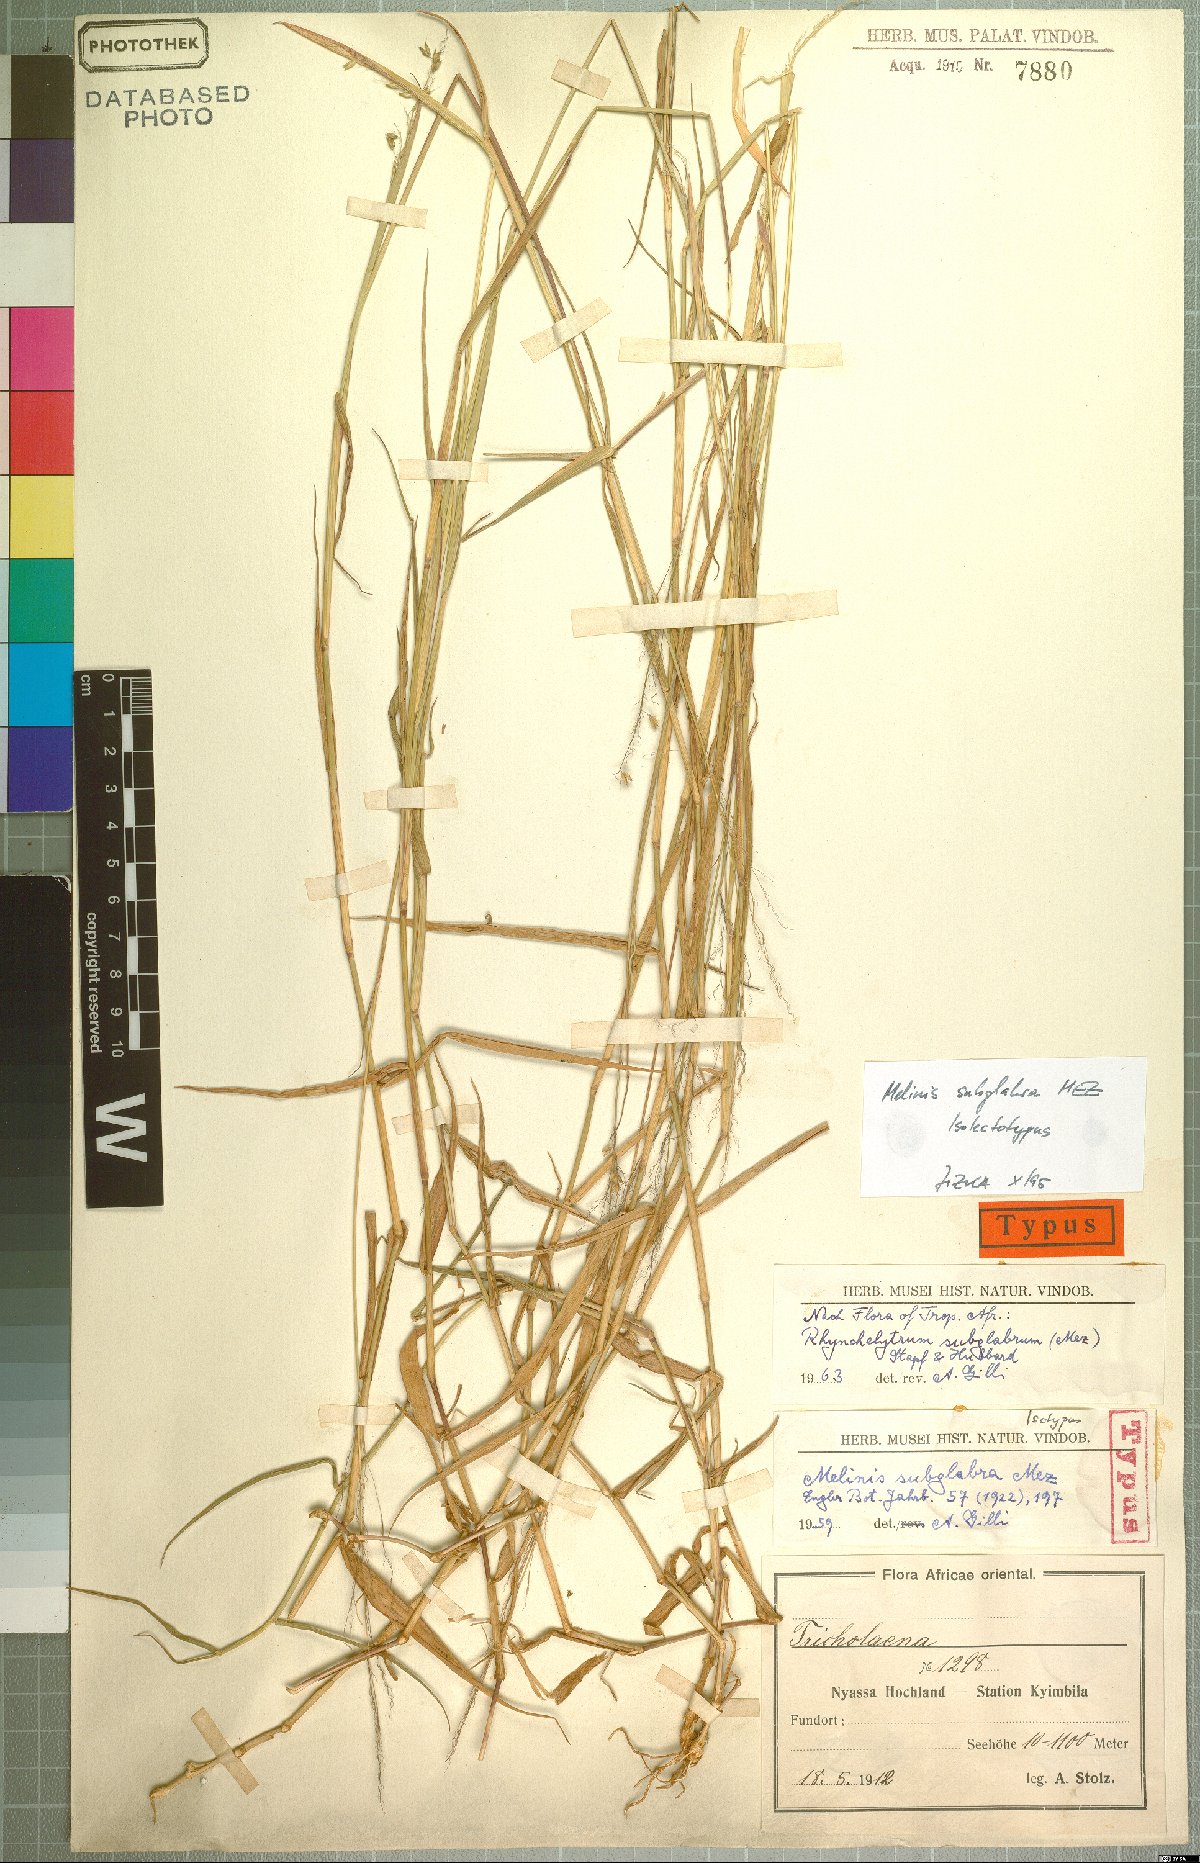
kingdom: Plantae
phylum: Tracheophyta
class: Liliopsida
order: Poales
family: Poaceae
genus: Melinis
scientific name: Melinis subglabra
